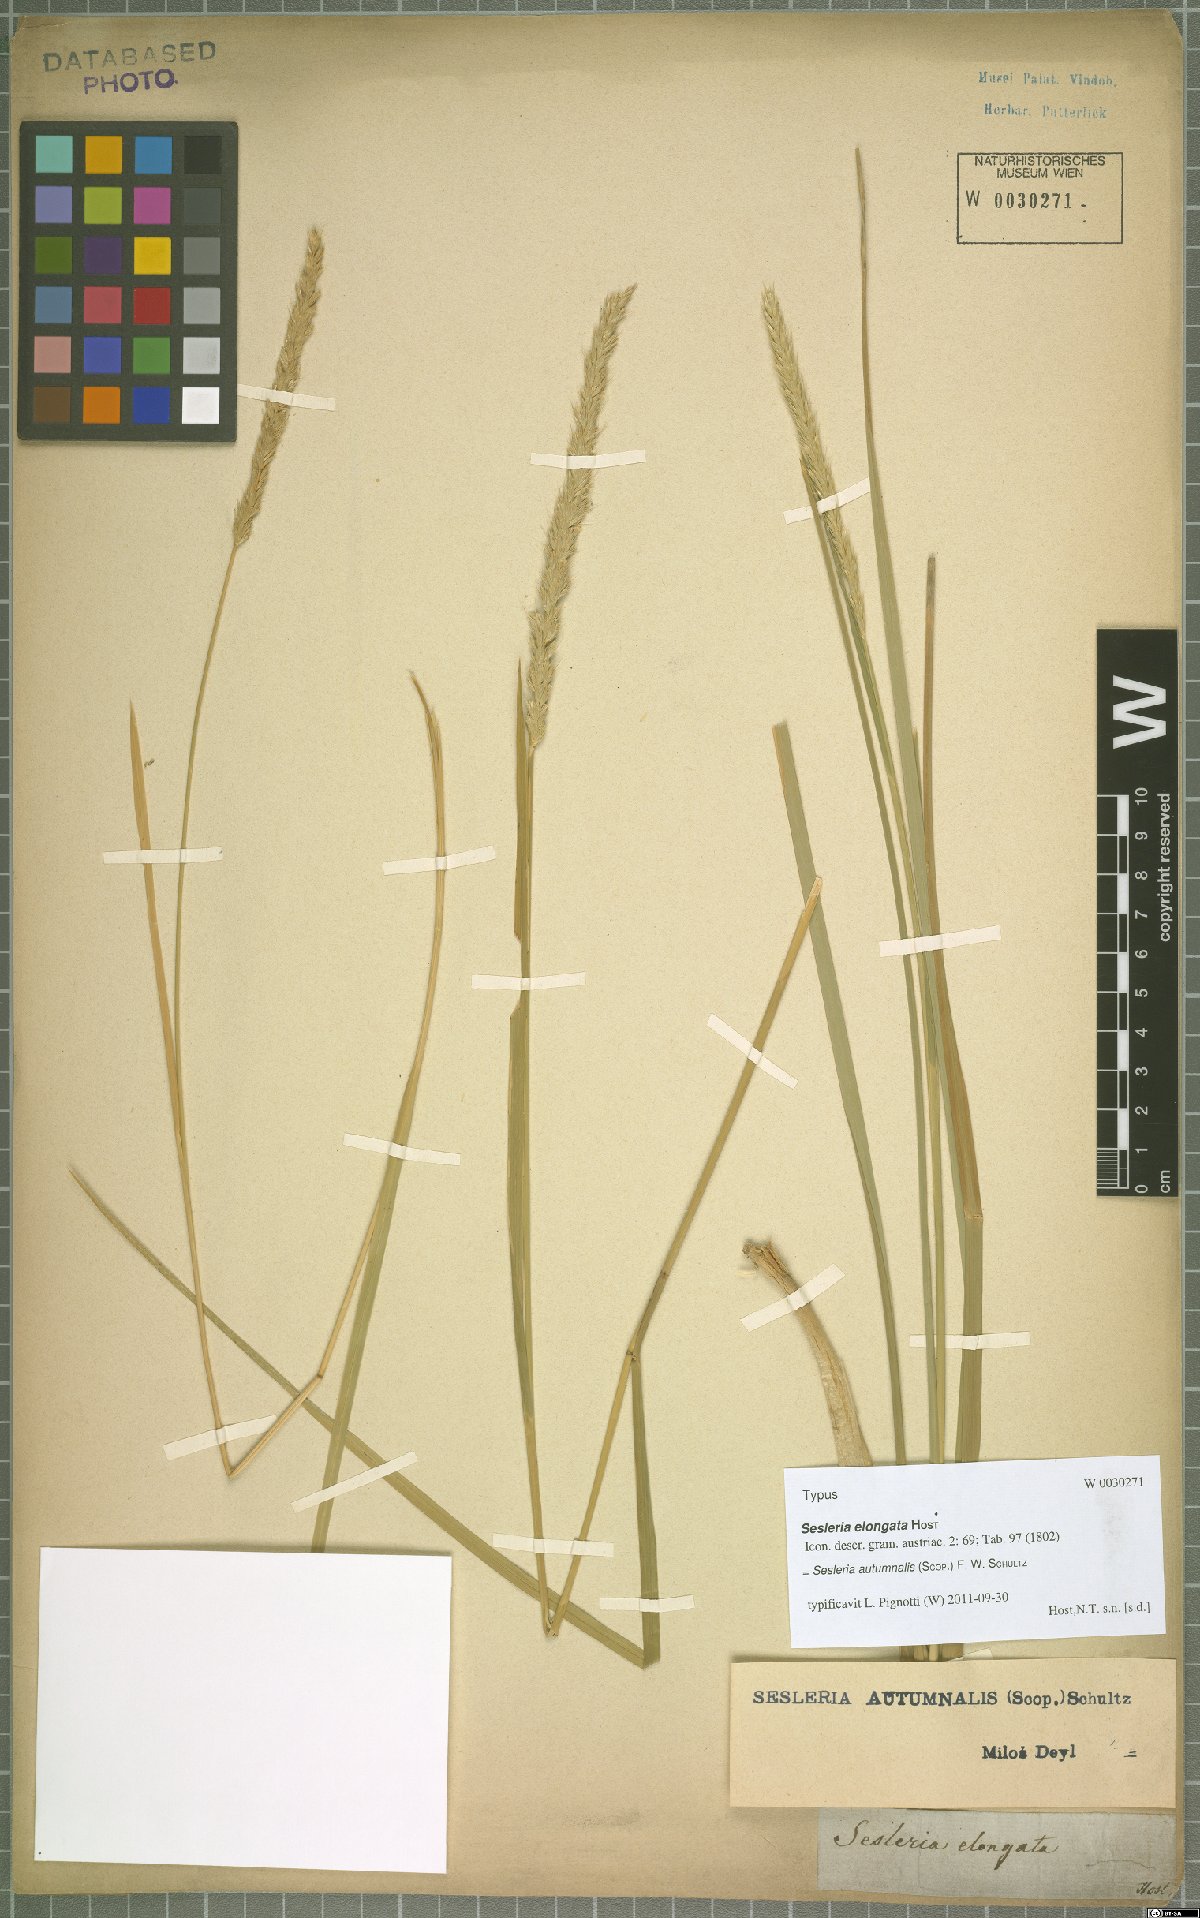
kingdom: Plantae
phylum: Tracheophyta
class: Liliopsida
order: Poales
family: Poaceae
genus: Sesleria
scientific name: Sesleria autumnalis
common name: Autumn moor grass
